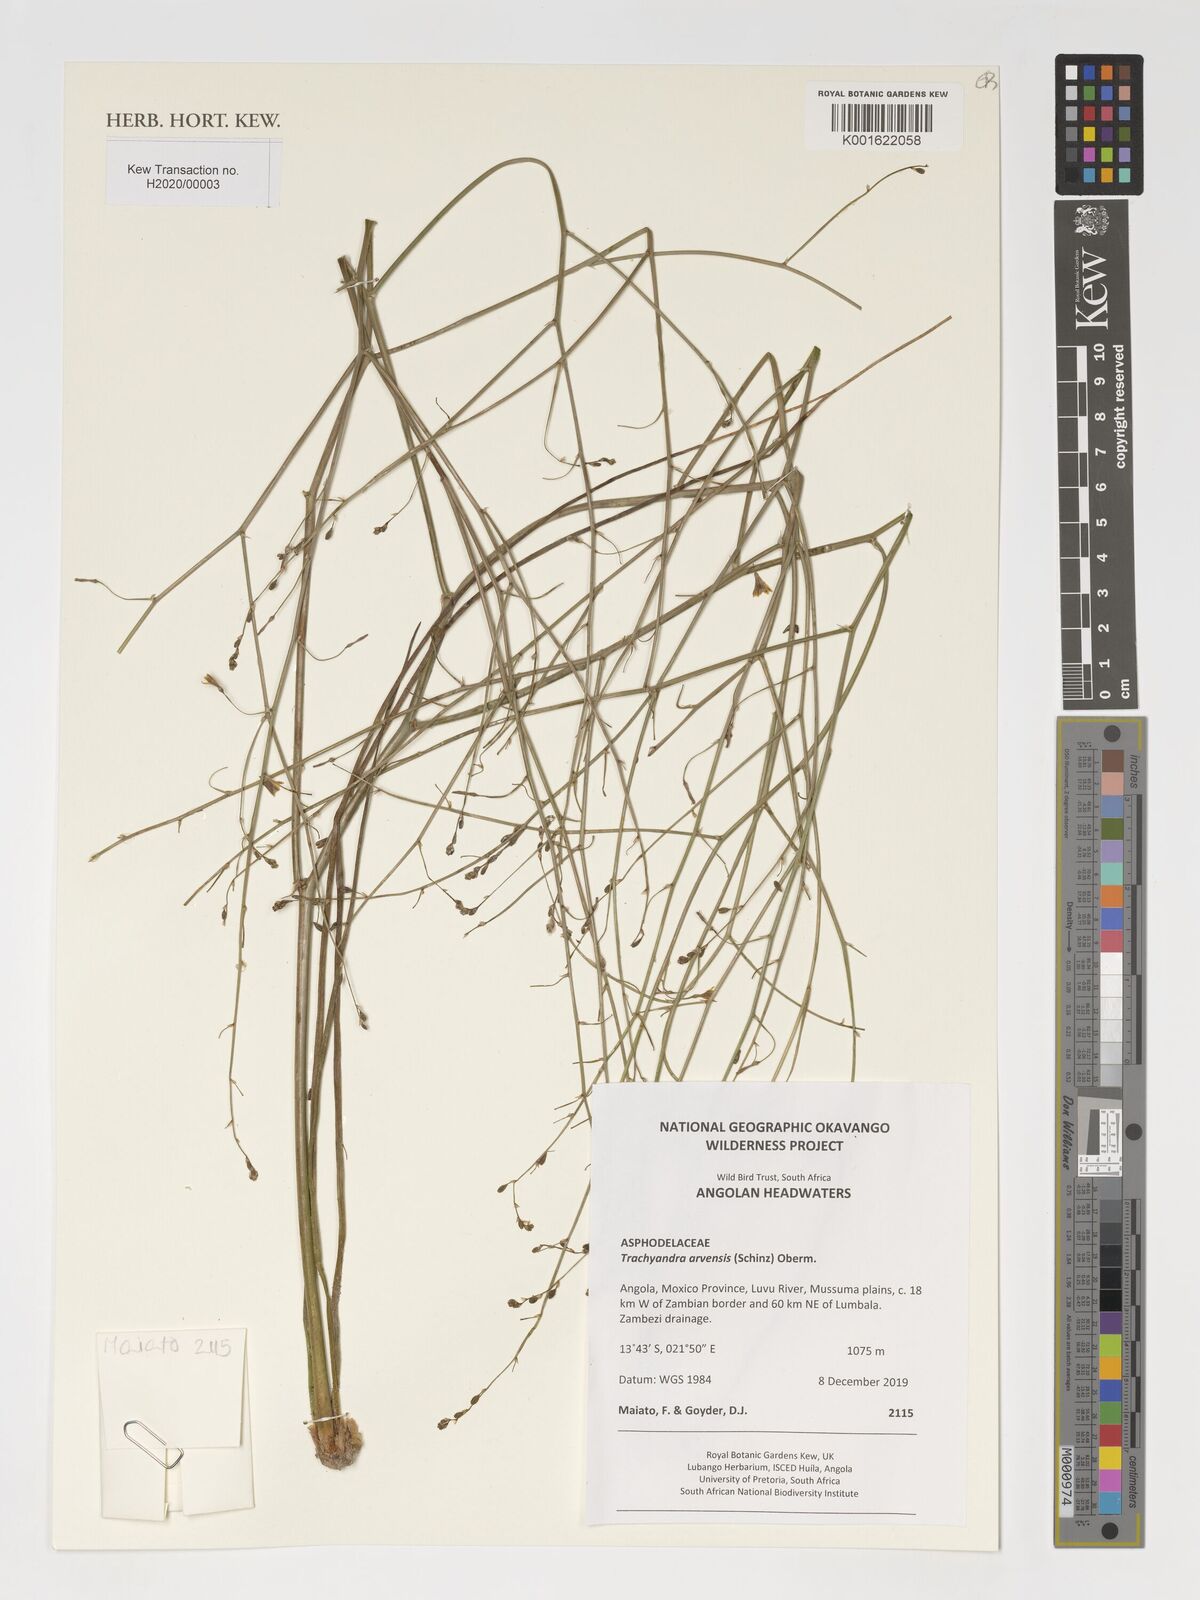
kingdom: Plantae
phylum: Tracheophyta
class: Liliopsida
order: Asparagales
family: Asphodelaceae
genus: Trachyandra
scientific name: Trachyandra arvensis
